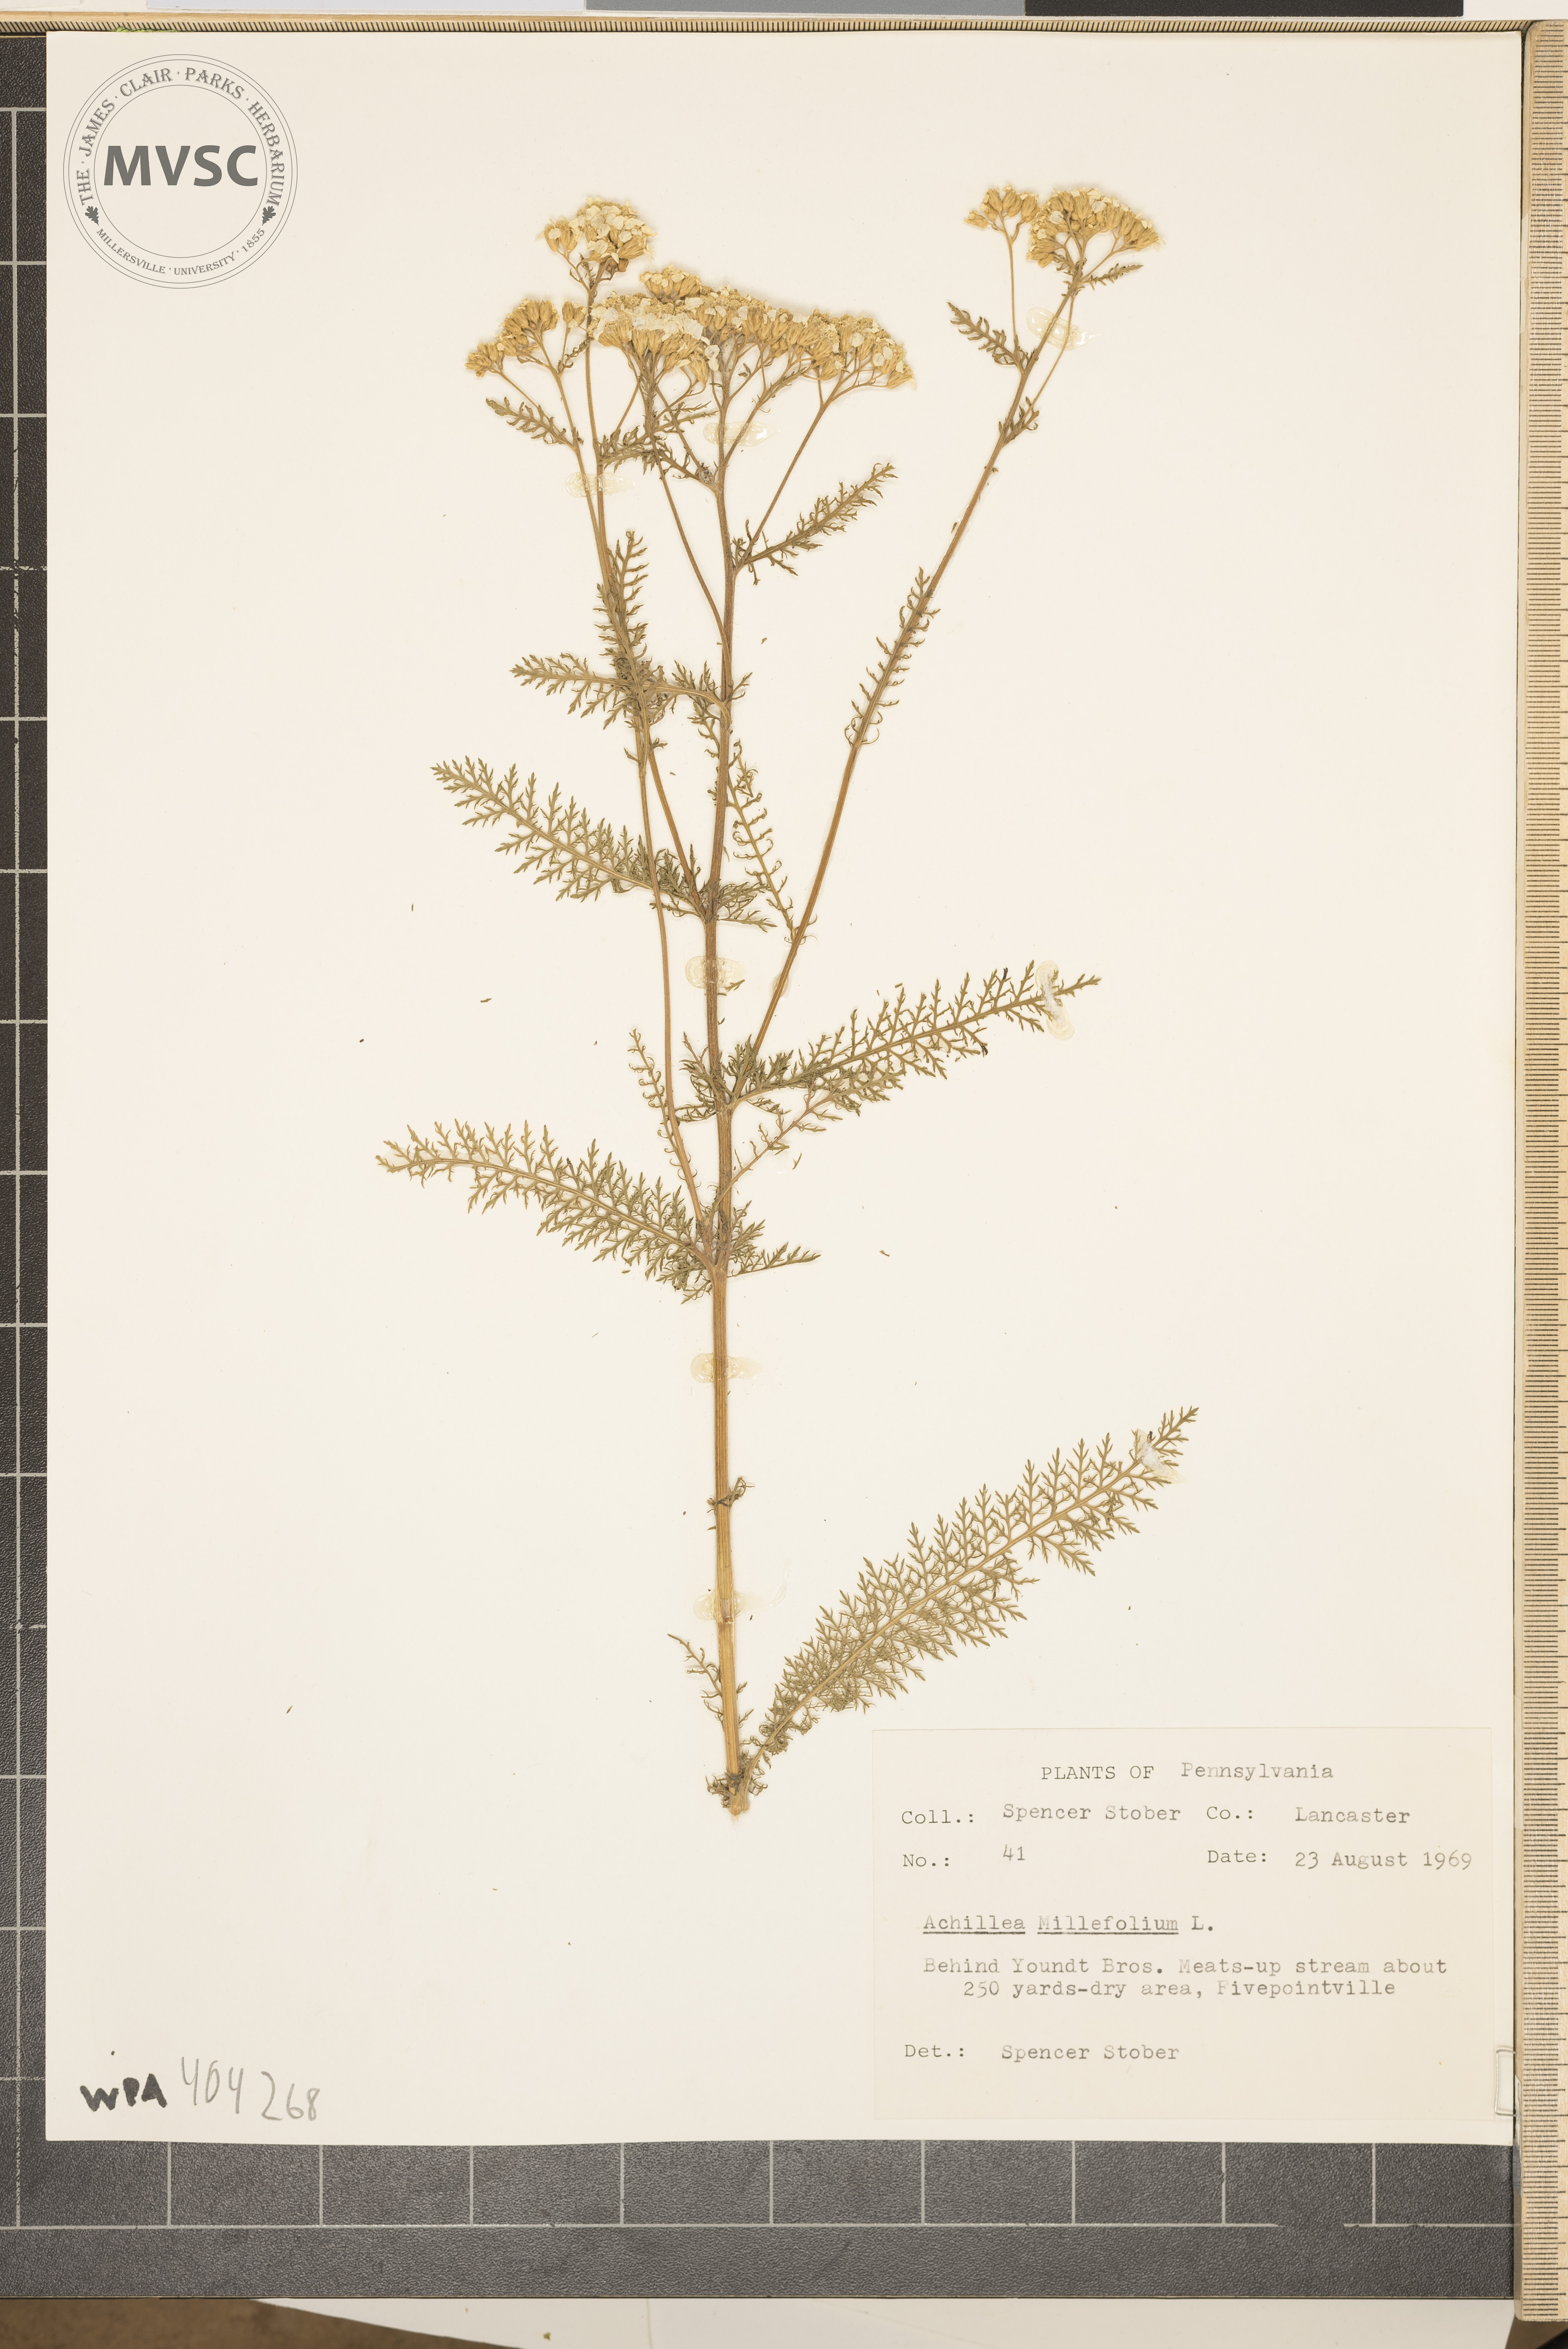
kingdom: Plantae
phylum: Tracheophyta
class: Magnoliopsida
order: Asterales
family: Asteraceae
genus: Achillea
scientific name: Achillea millefolium
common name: Yarrow
